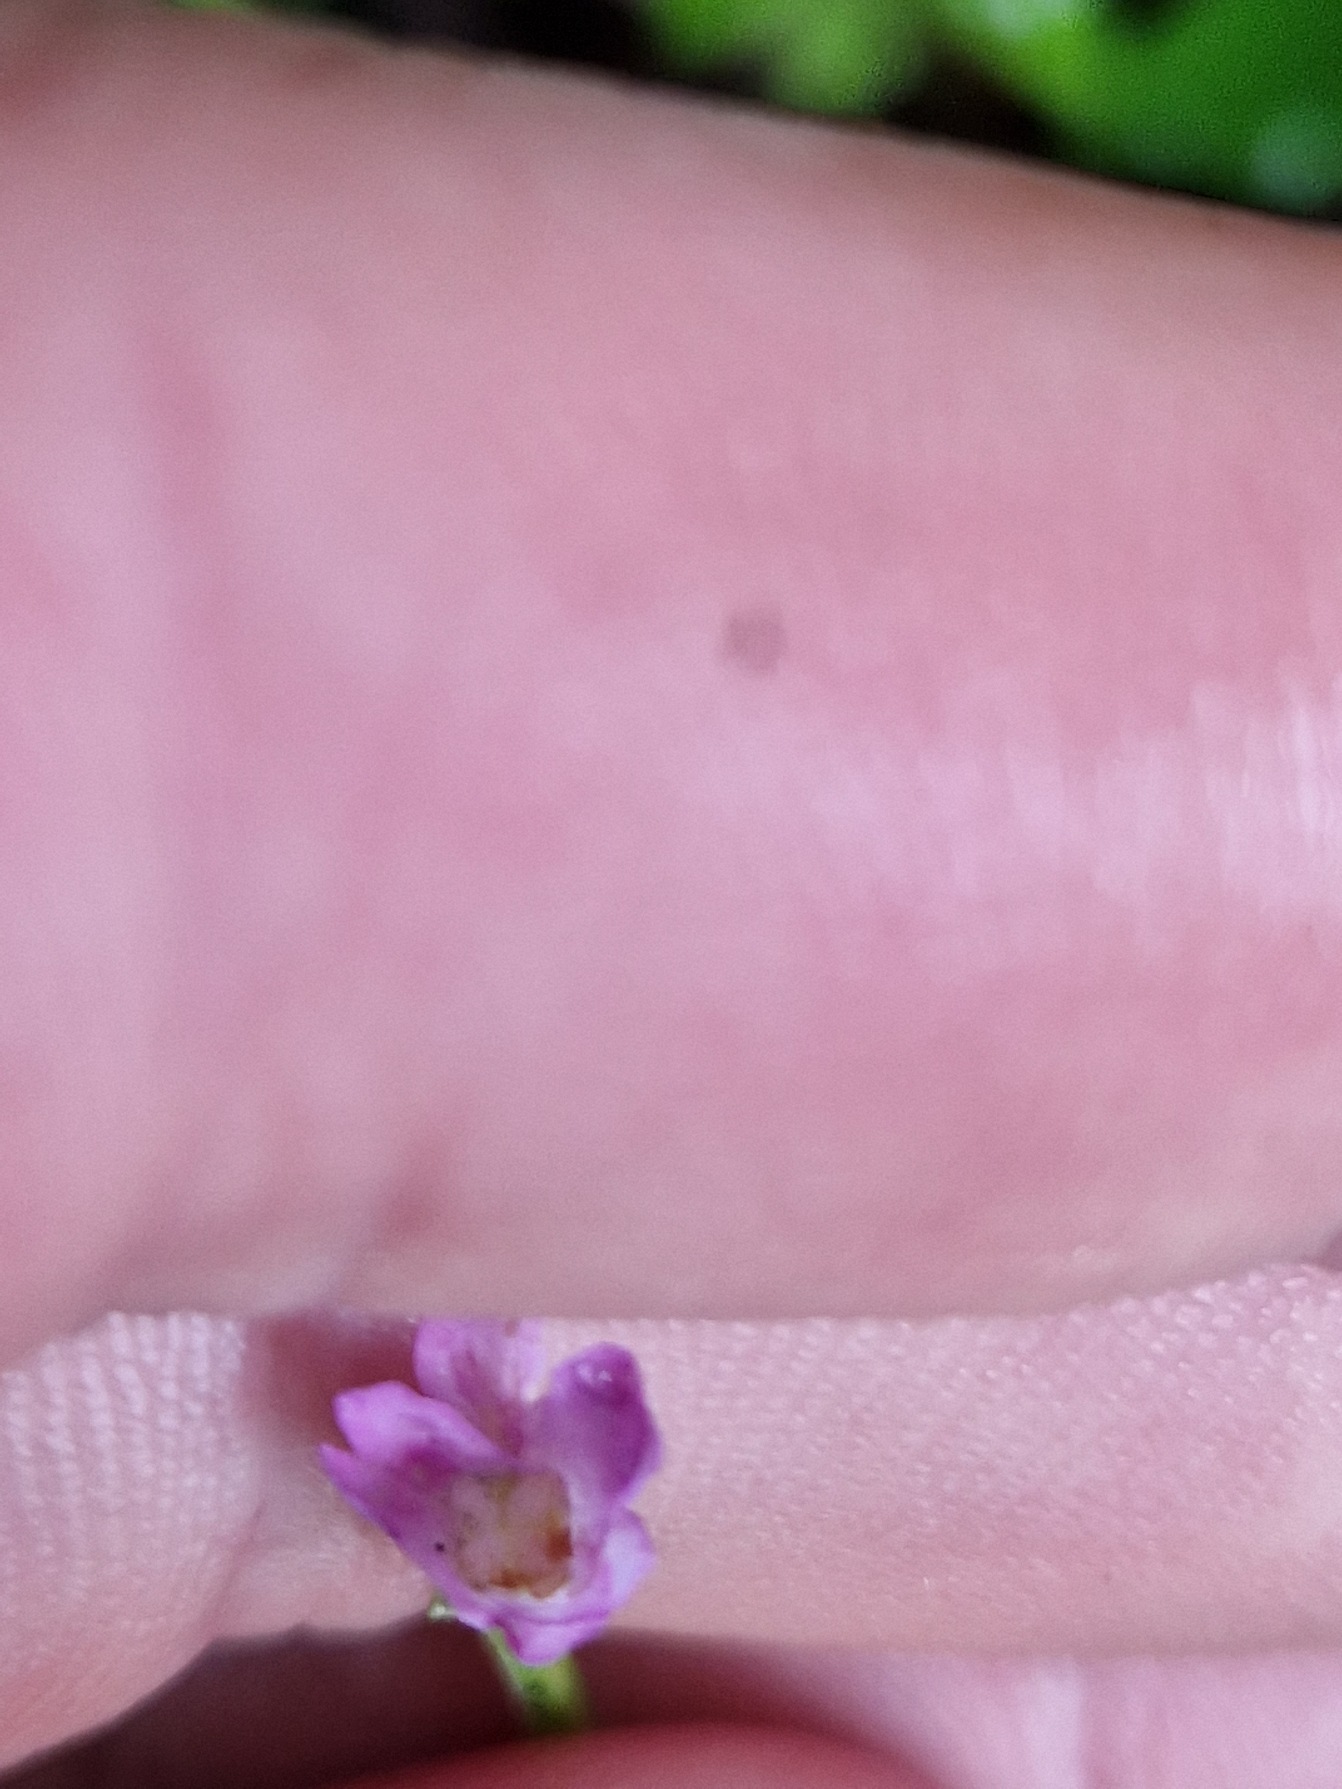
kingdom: Plantae
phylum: Tracheophyta
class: Magnoliopsida
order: Myrtales
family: Onagraceae
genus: Epilobium
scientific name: Epilobium montanum
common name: Glat dueurt
